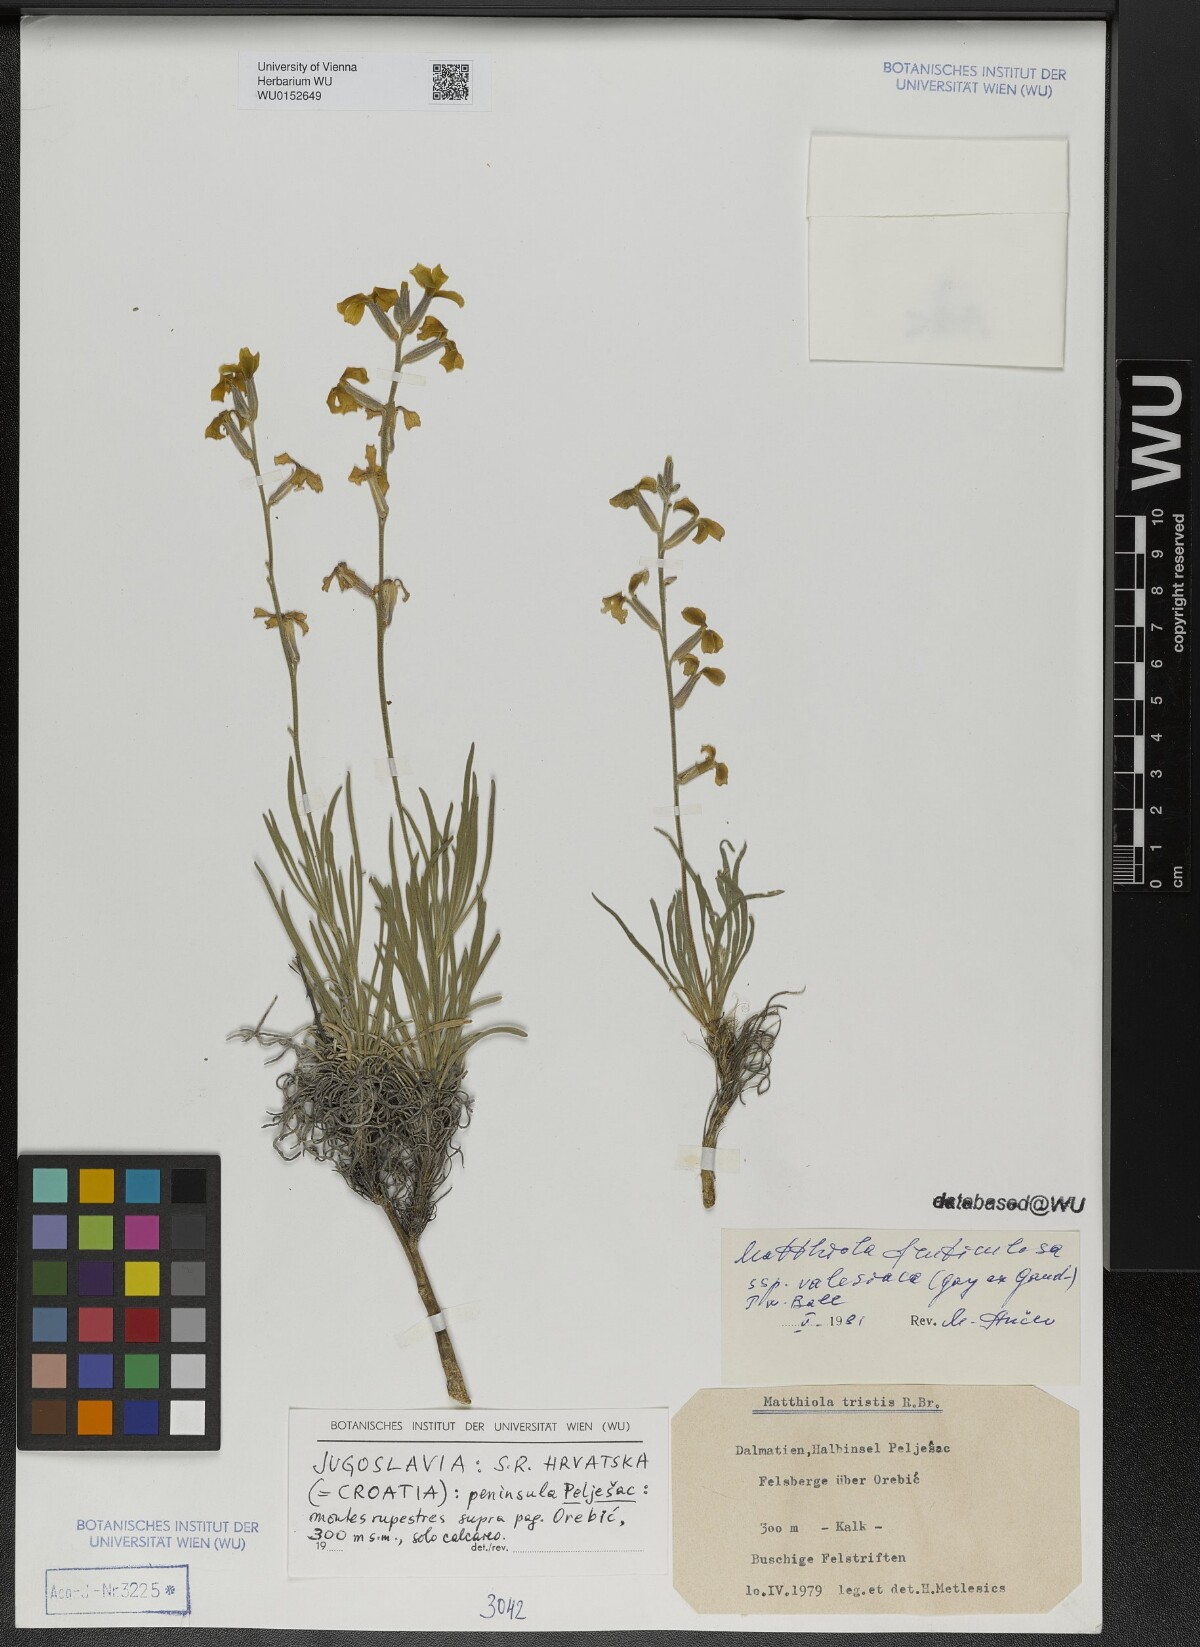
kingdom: Plantae
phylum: Tracheophyta
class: Magnoliopsida
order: Brassicales
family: Brassicaceae
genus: Matthiola
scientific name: Matthiola fruticulosa
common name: Sad stock
